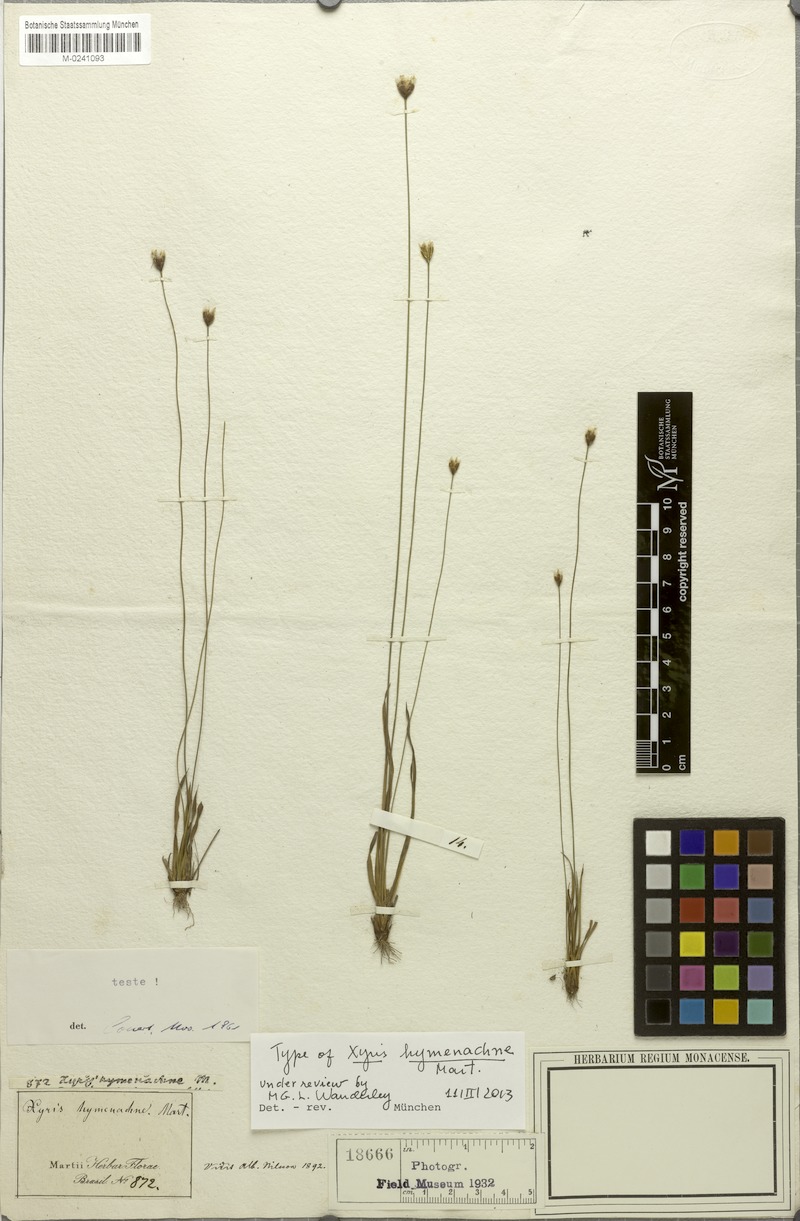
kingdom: Plantae
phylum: Tracheophyta
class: Liliopsida
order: Poales
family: Xyridaceae
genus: Xyris
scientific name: Xyris hymenachne
